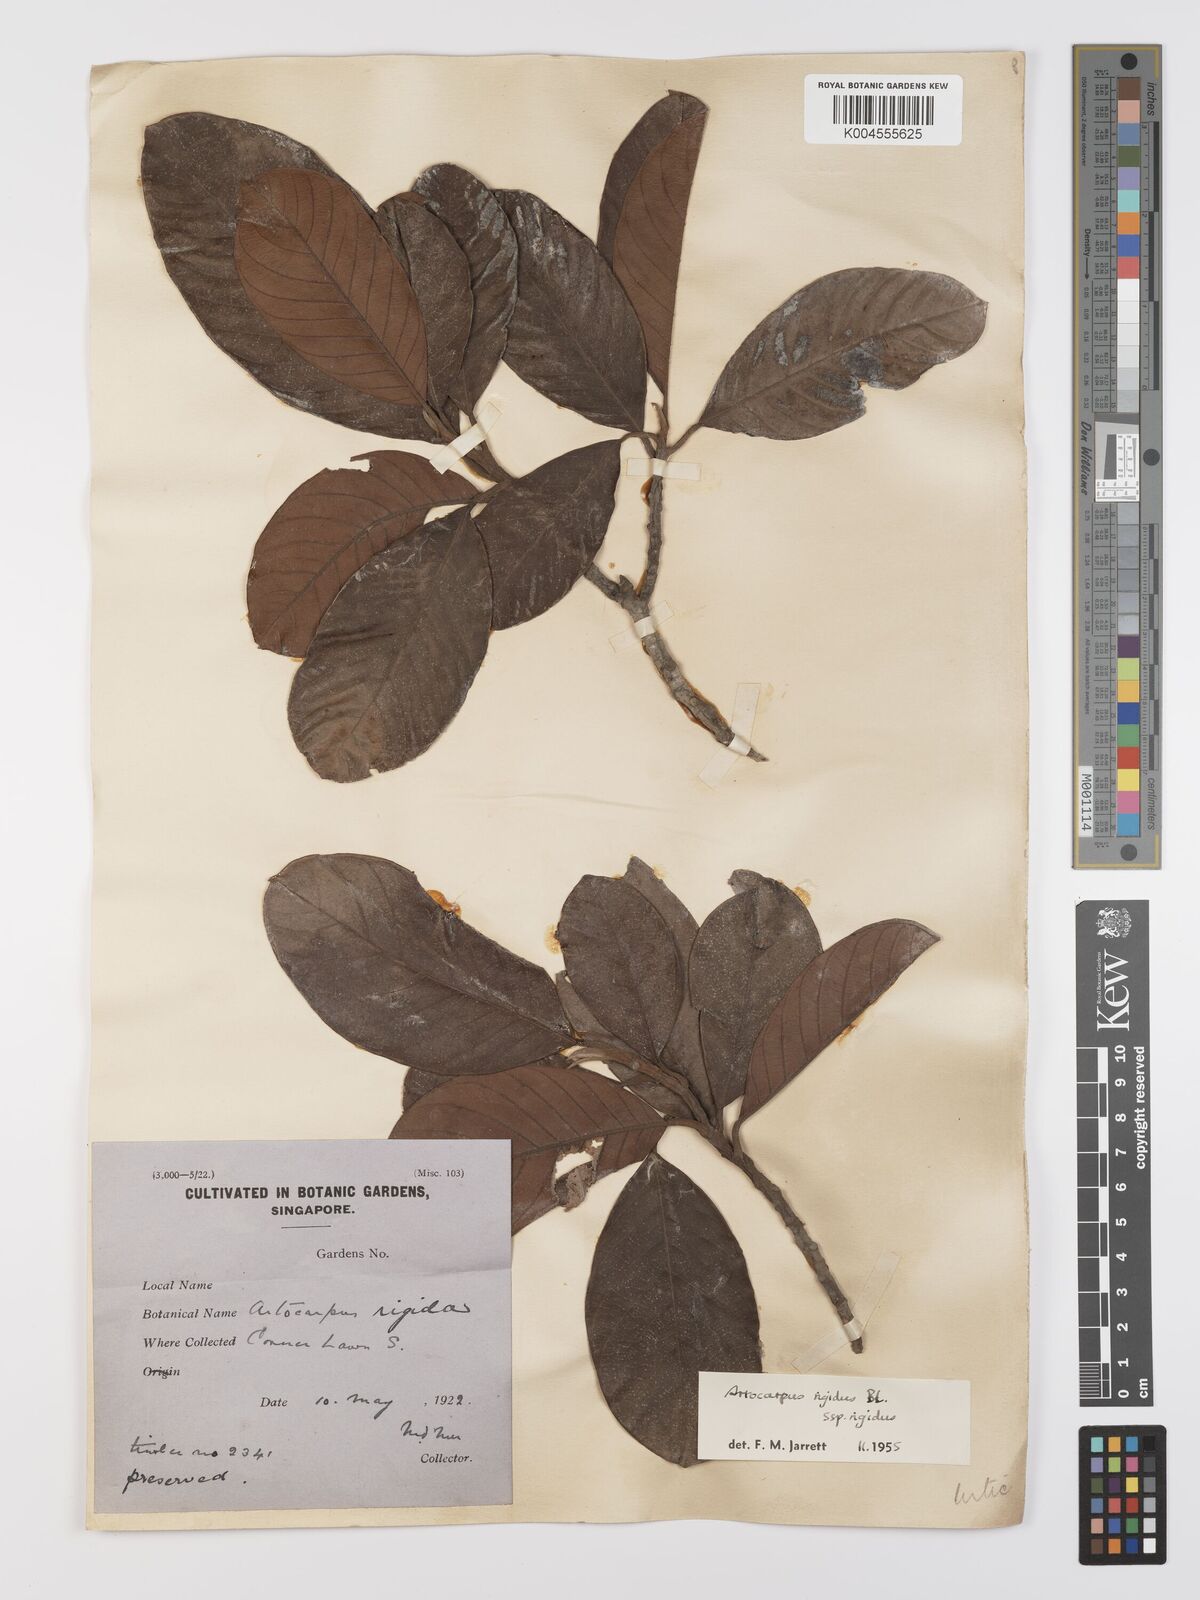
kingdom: Plantae
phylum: Tracheophyta
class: Magnoliopsida
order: Rosales
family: Moraceae
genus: Artocarpus
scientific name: Artocarpus
